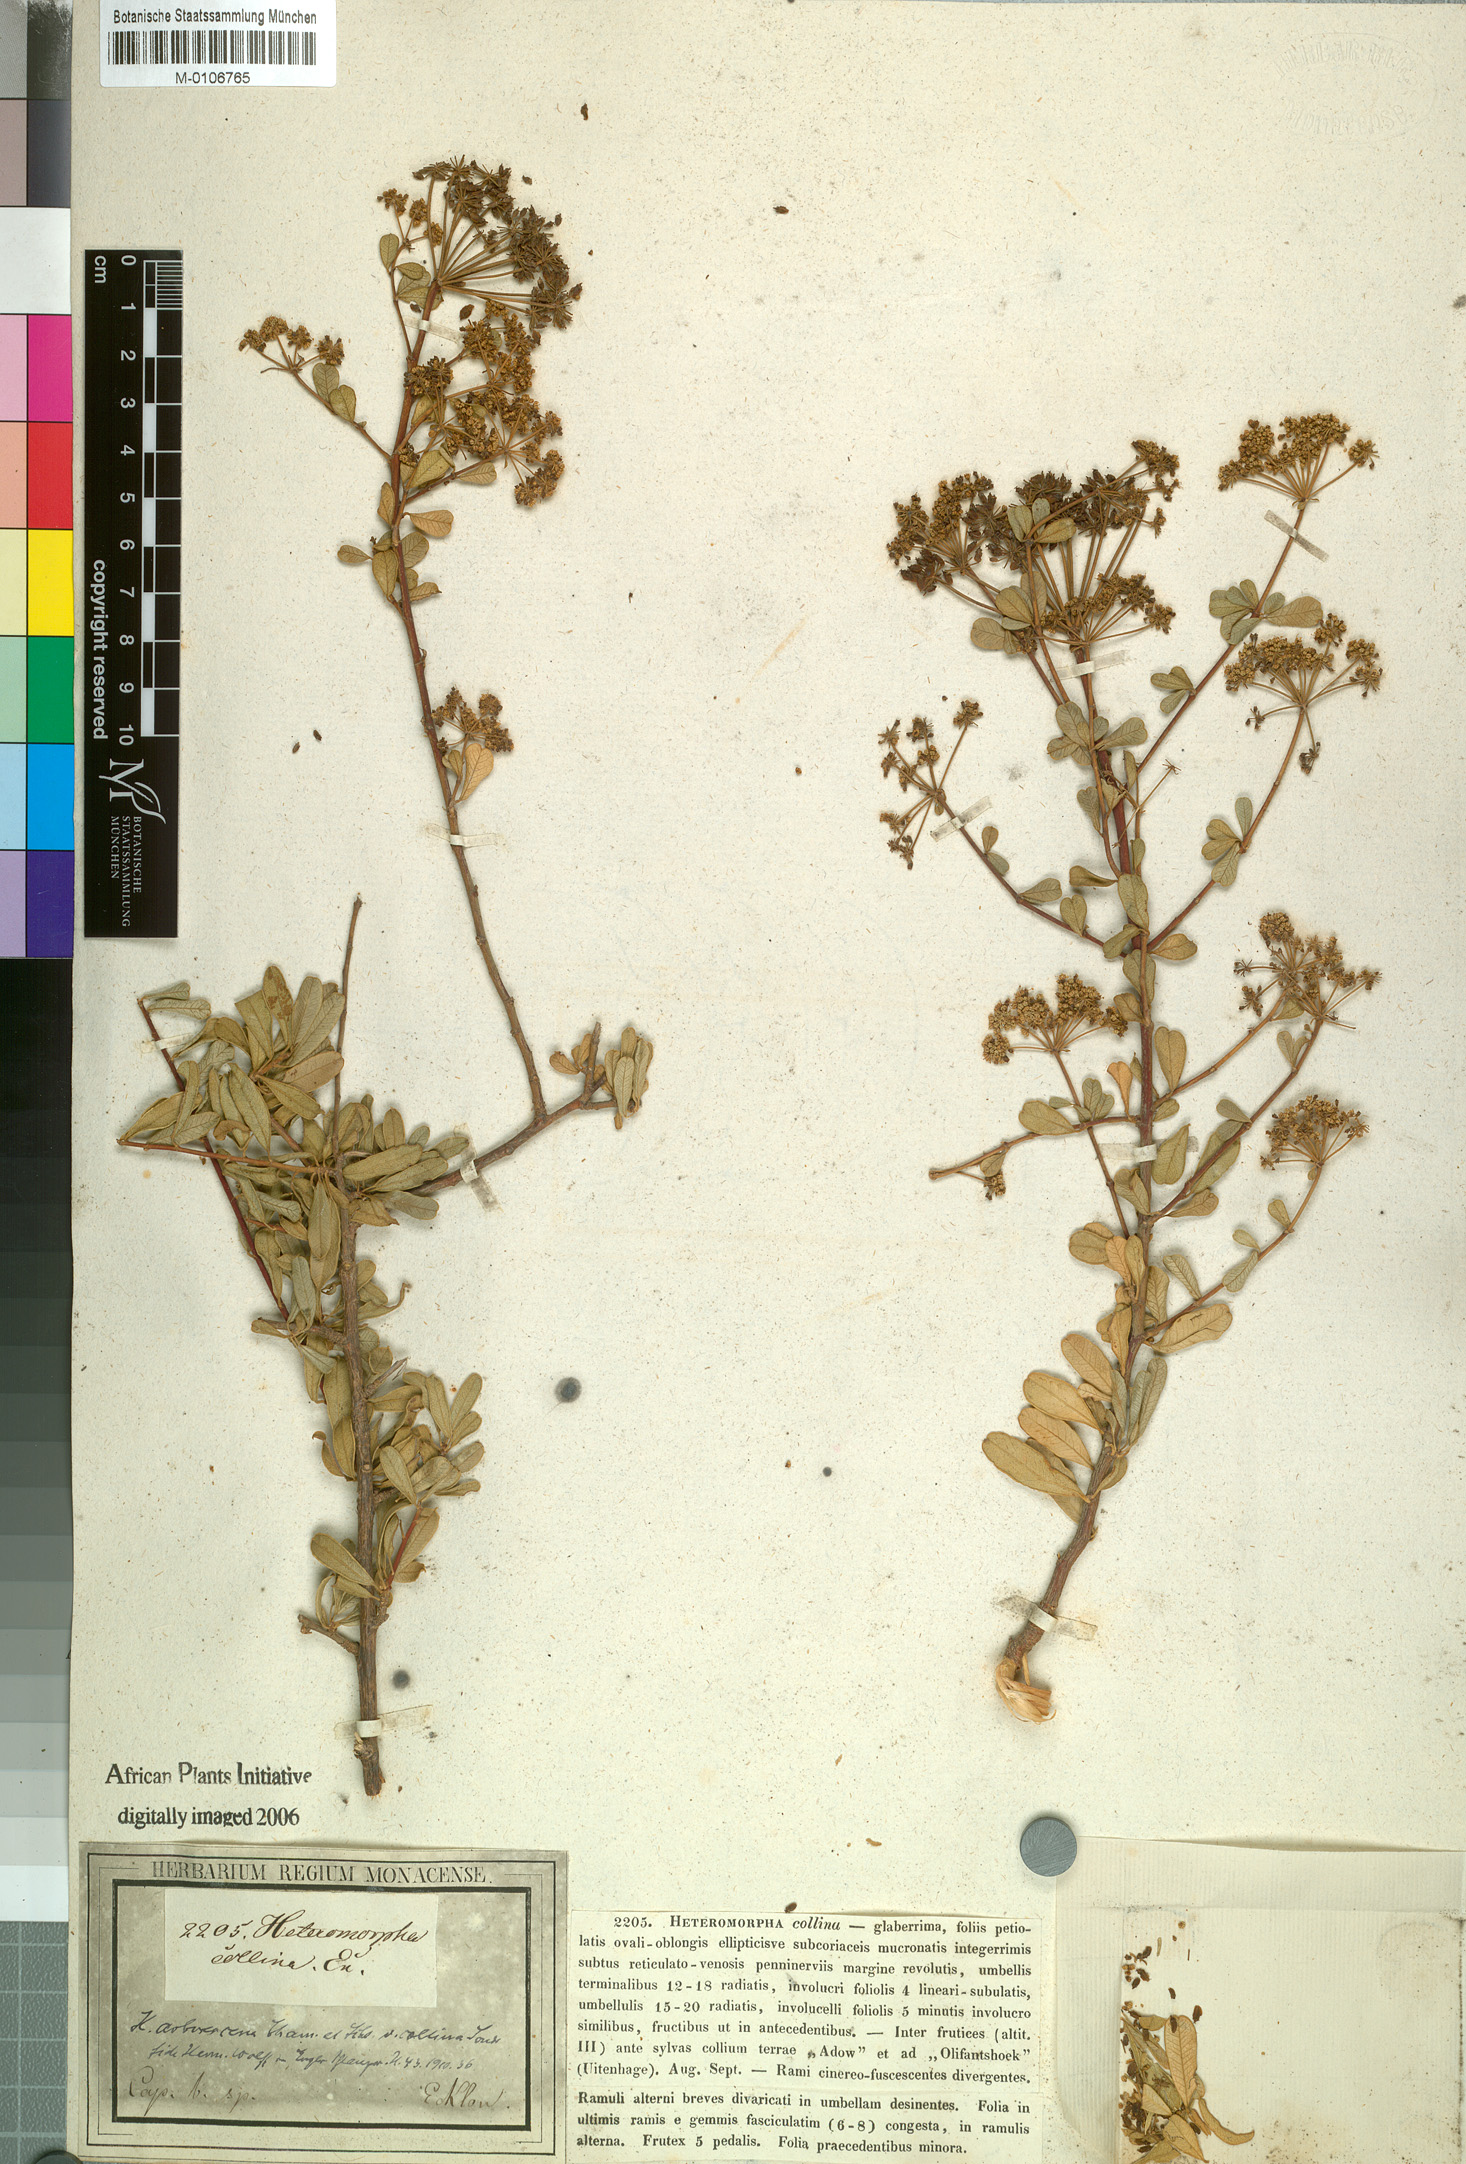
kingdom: Plantae
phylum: Tracheophyta
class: Magnoliopsida
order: Apiales
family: Apiaceae
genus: Heteromorpha
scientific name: Heteromorpha arborescens
